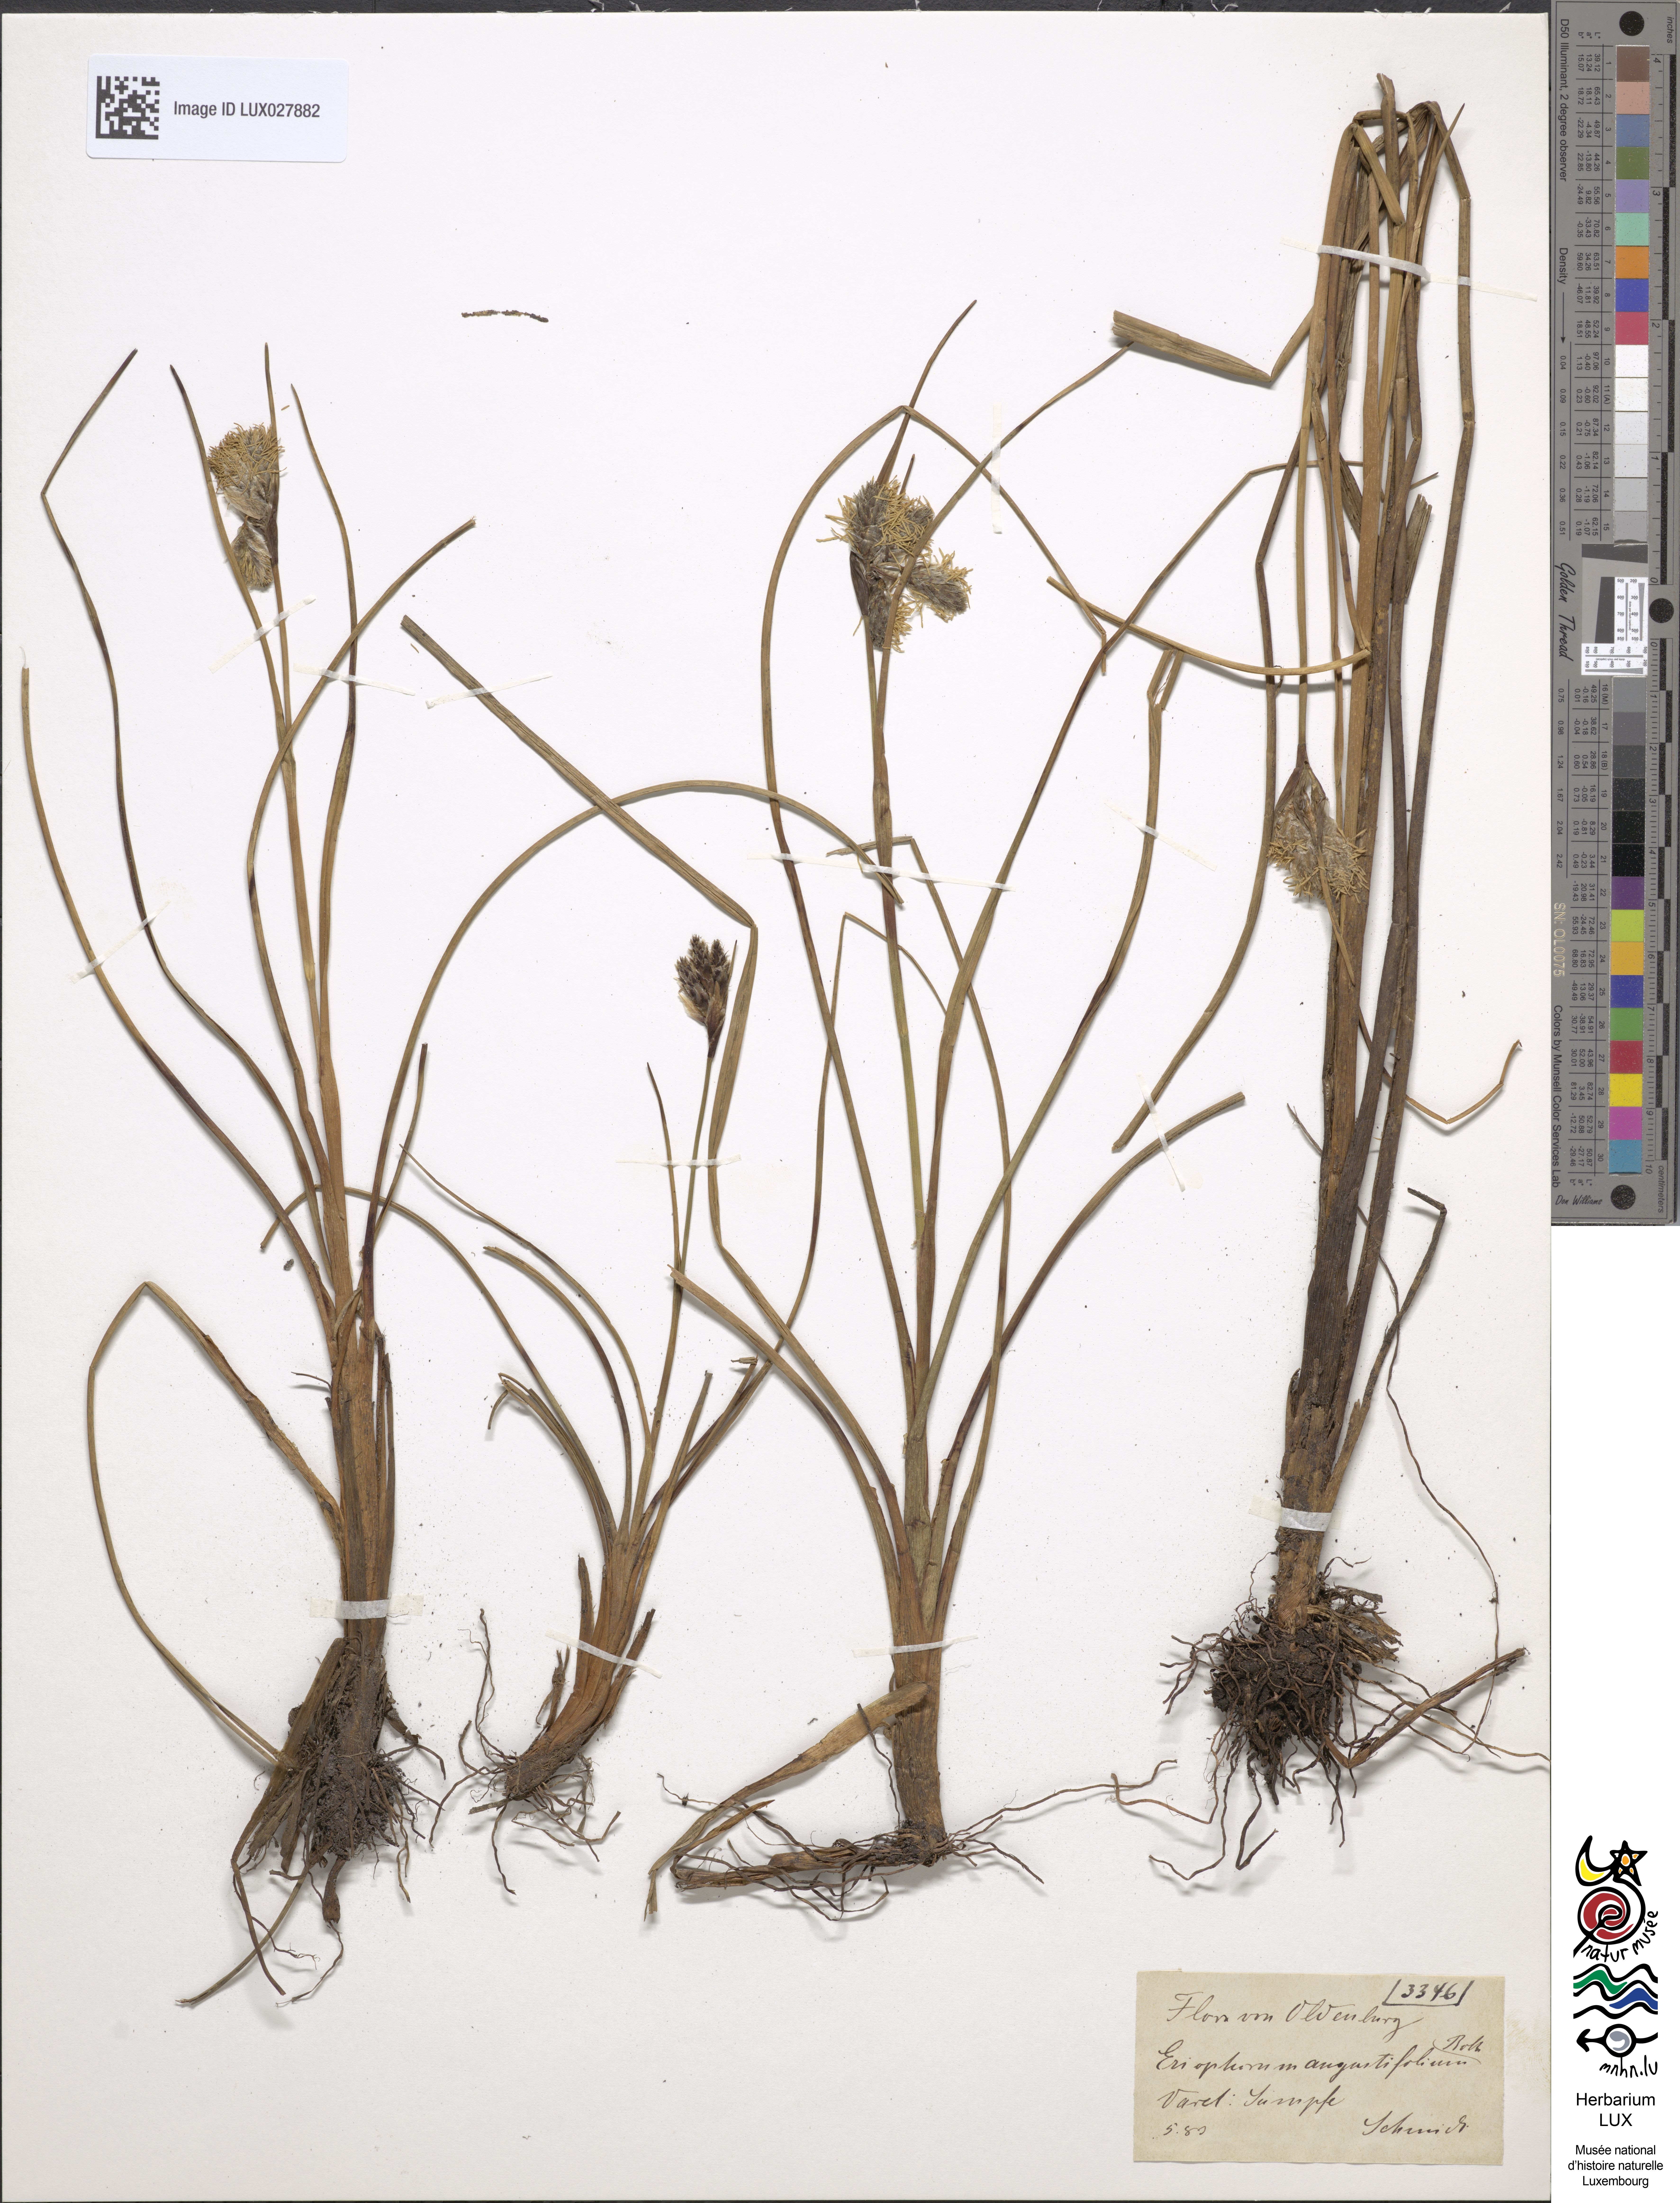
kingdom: Plantae
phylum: Tracheophyta
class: Liliopsida
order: Poales
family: Cyperaceae
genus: Eriophorum
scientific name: Eriophorum angustifolium
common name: Common cottongrass
